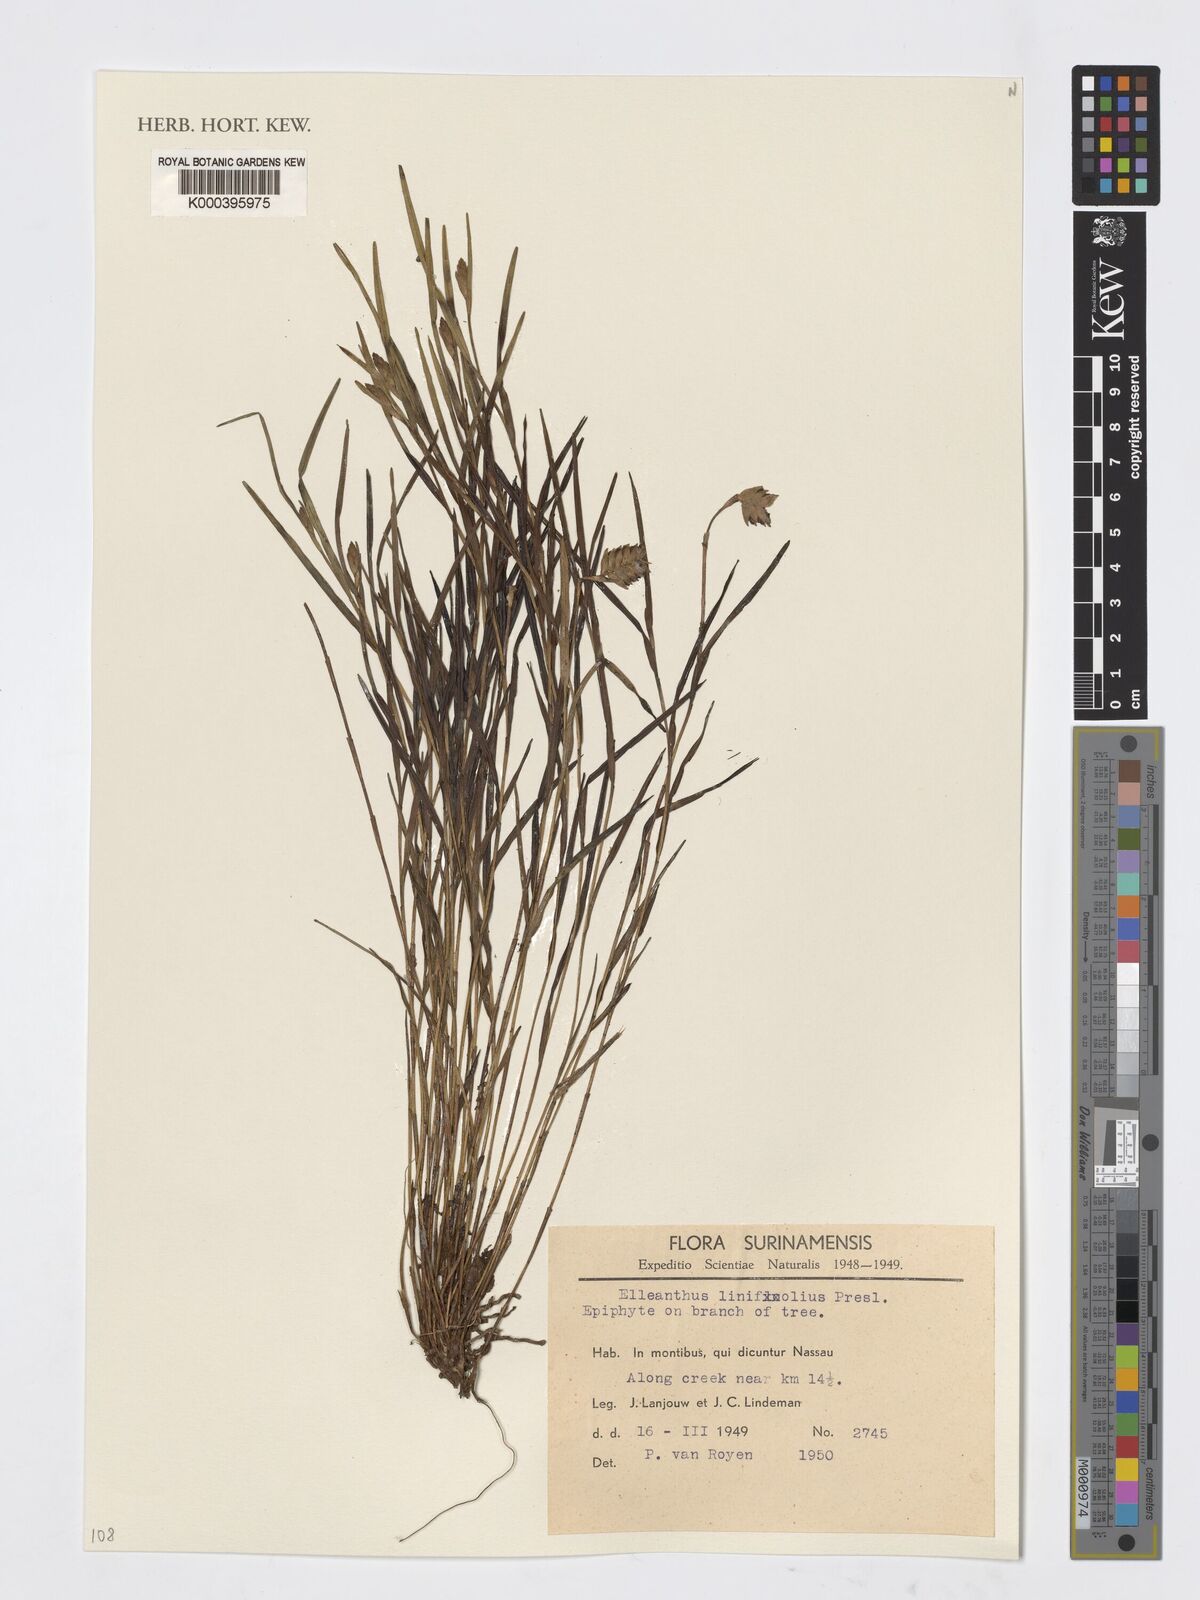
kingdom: Plantae
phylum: Tracheophyta
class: Liliopsida
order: Asparagales
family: Orchidaceae
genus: Elleanthus
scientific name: Elleanthus linifolius
